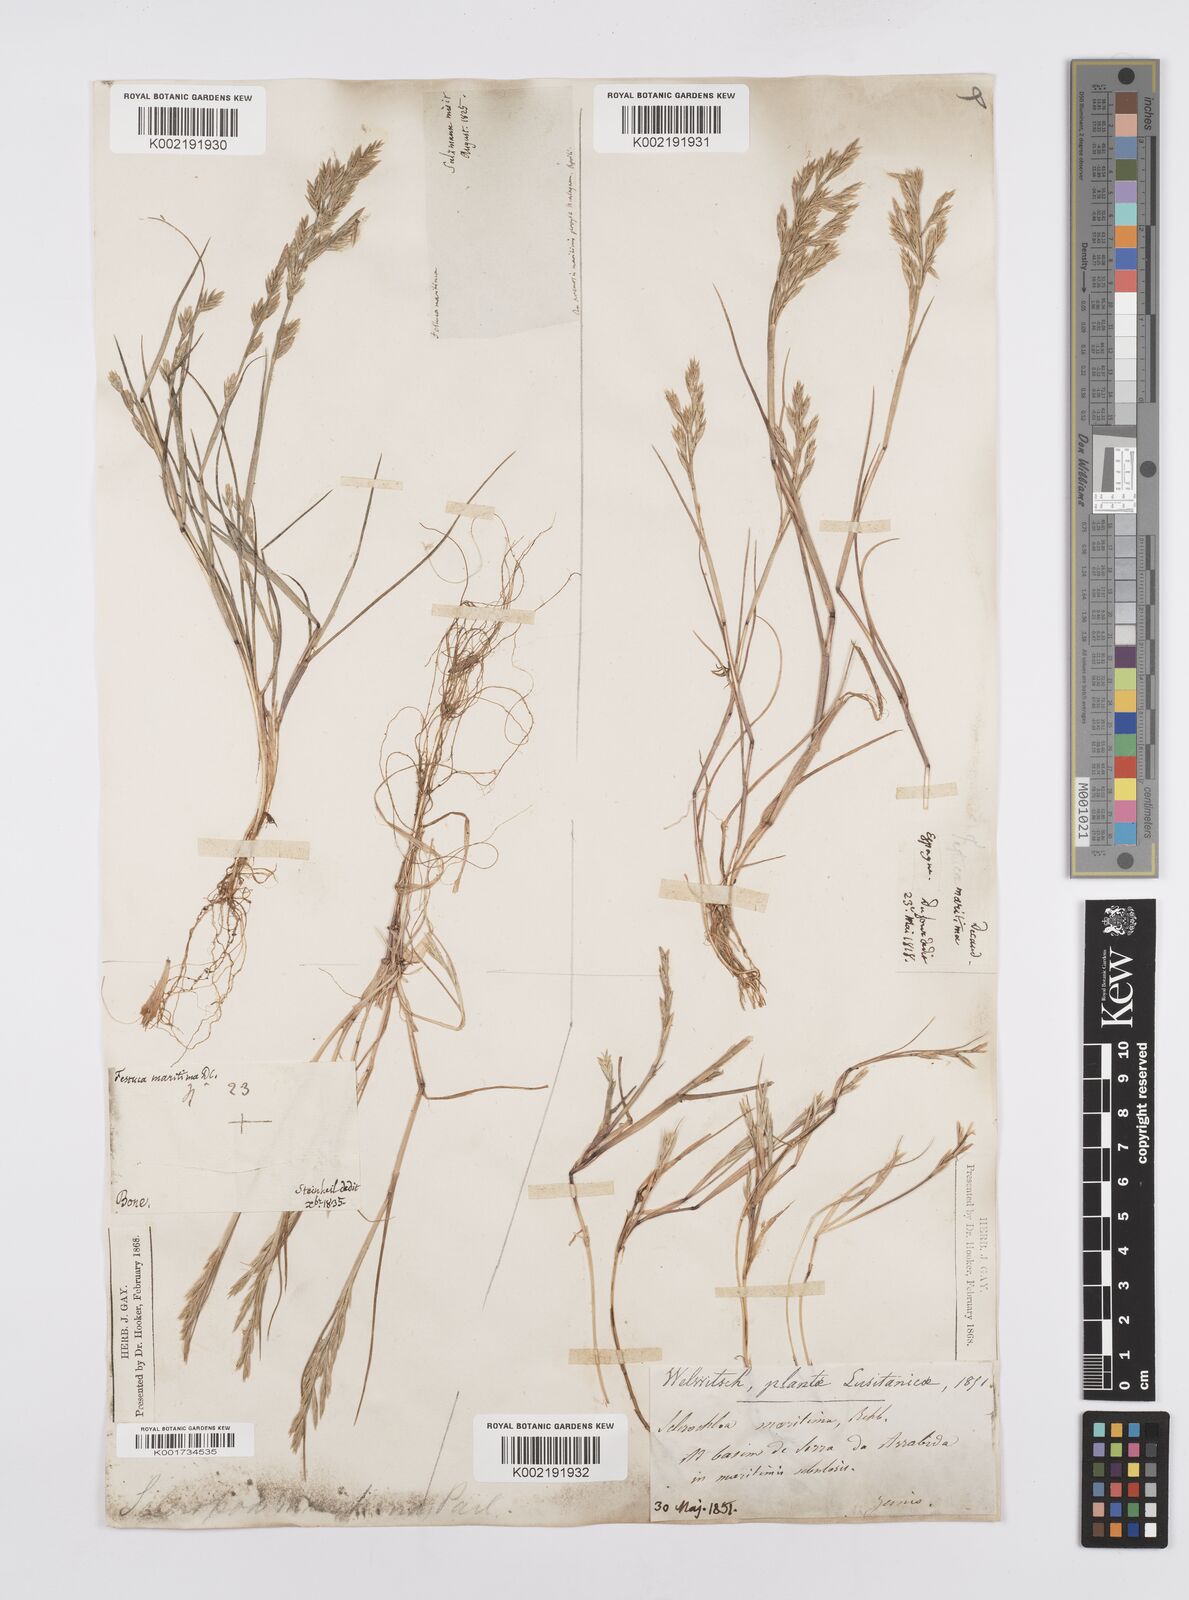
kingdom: Plantae
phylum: Tracheophyta
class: Liliopsida
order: Poales
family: Poaceae
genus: Cutandia
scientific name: Cutandia maritima
